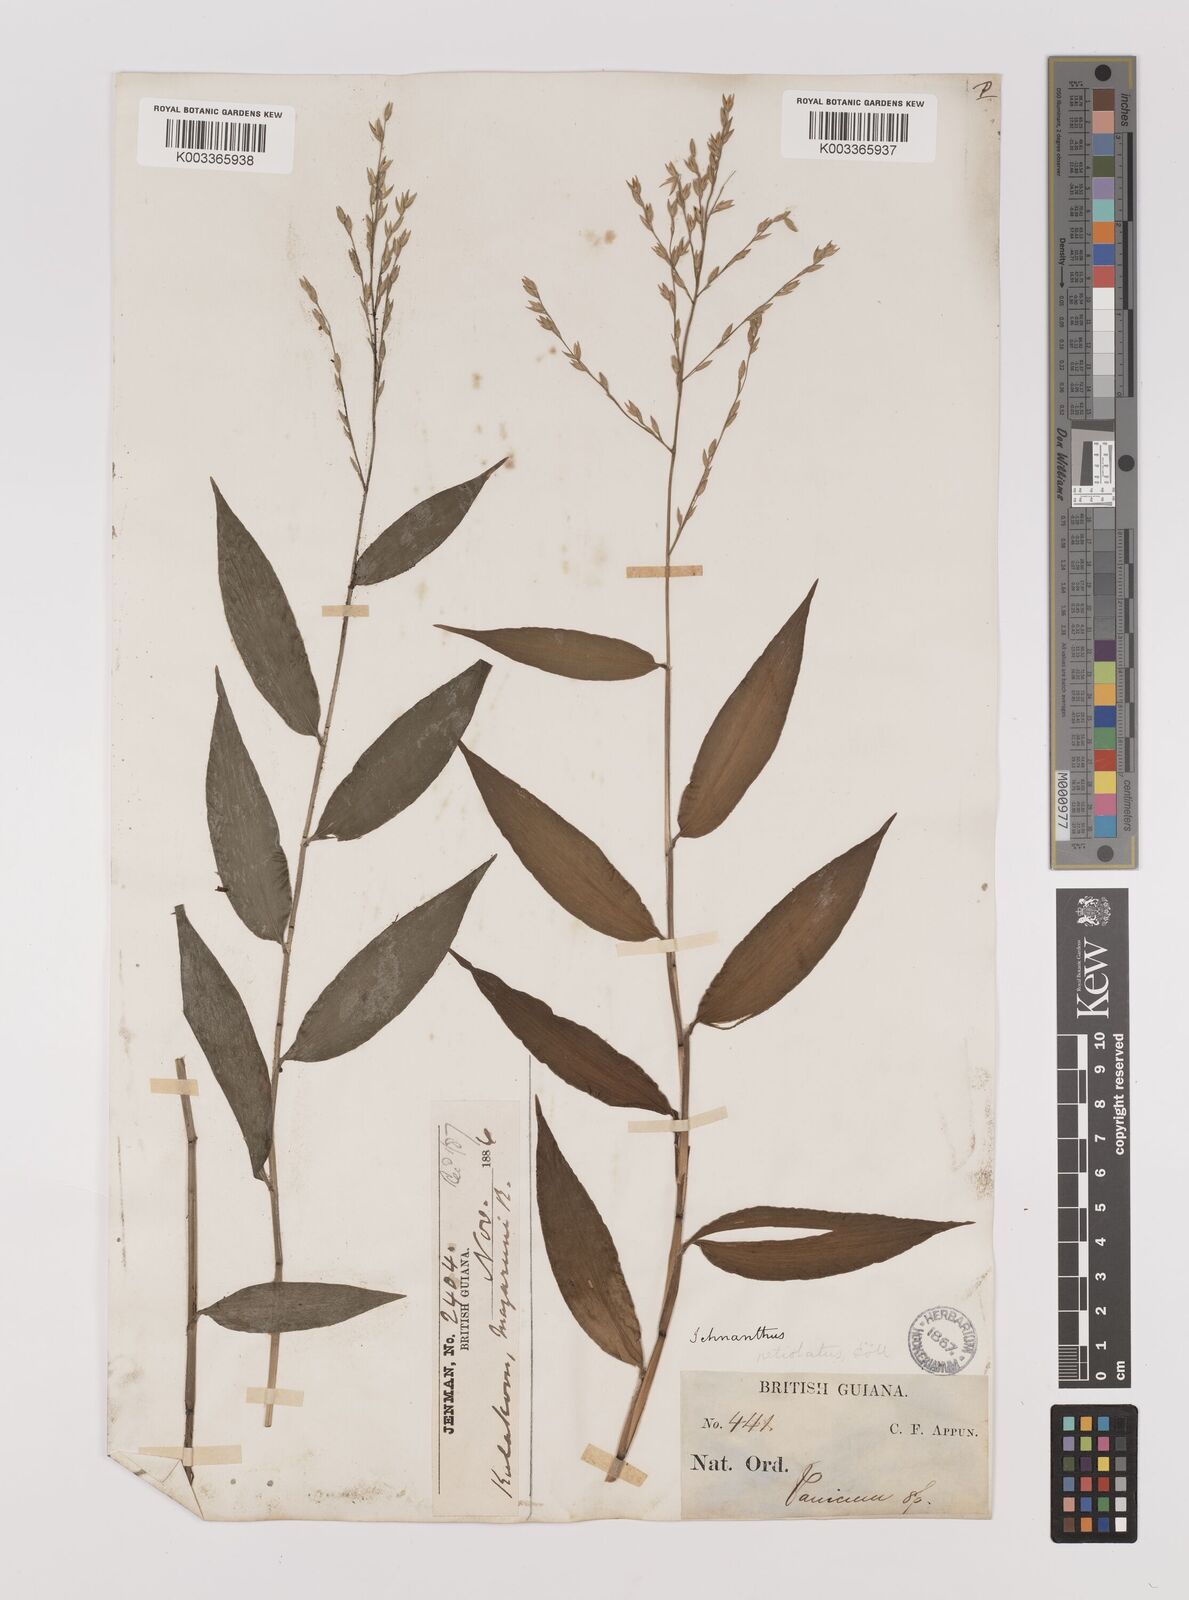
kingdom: Plantae
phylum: Tracheophyta
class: Liliopsida
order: Poales
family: Poaceae
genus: Ichnanthus
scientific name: Ichnanthus nemoralis
